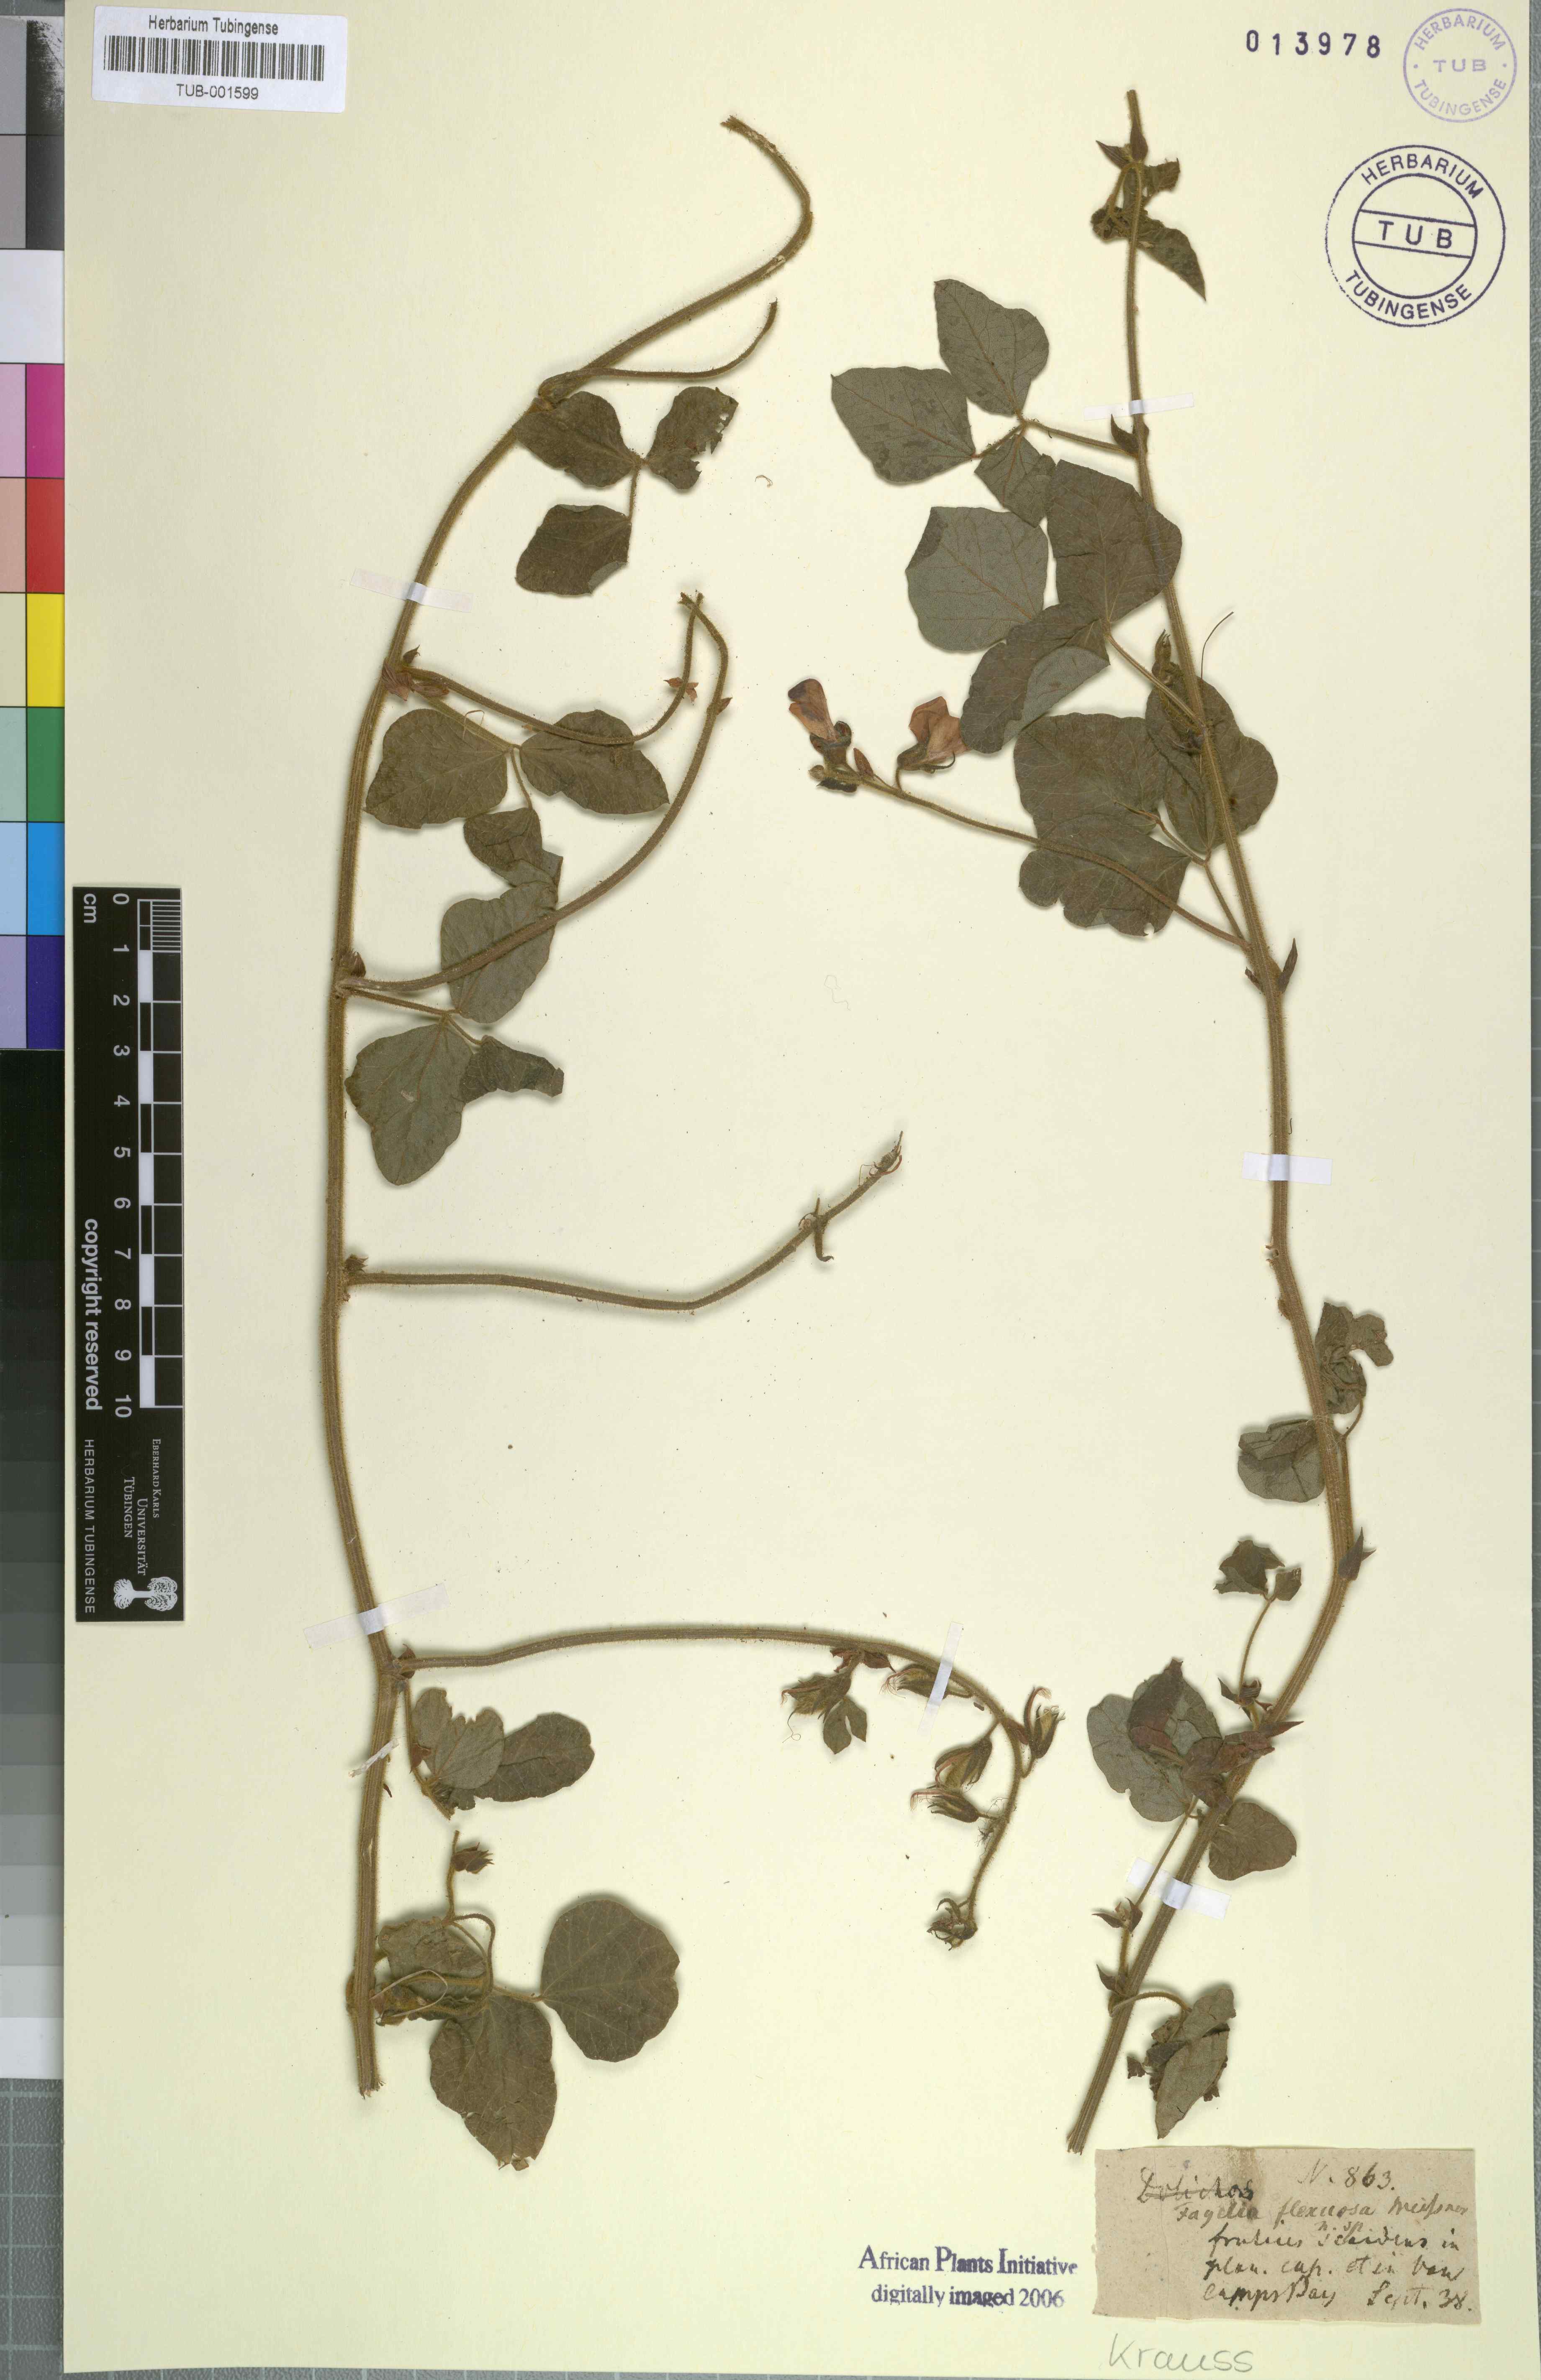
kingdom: Plantae
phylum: Tracheophyta
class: Magnoliopsida
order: Fabales
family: Fabaceae
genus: Bolusafra
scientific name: Bolusafra bituminosa
